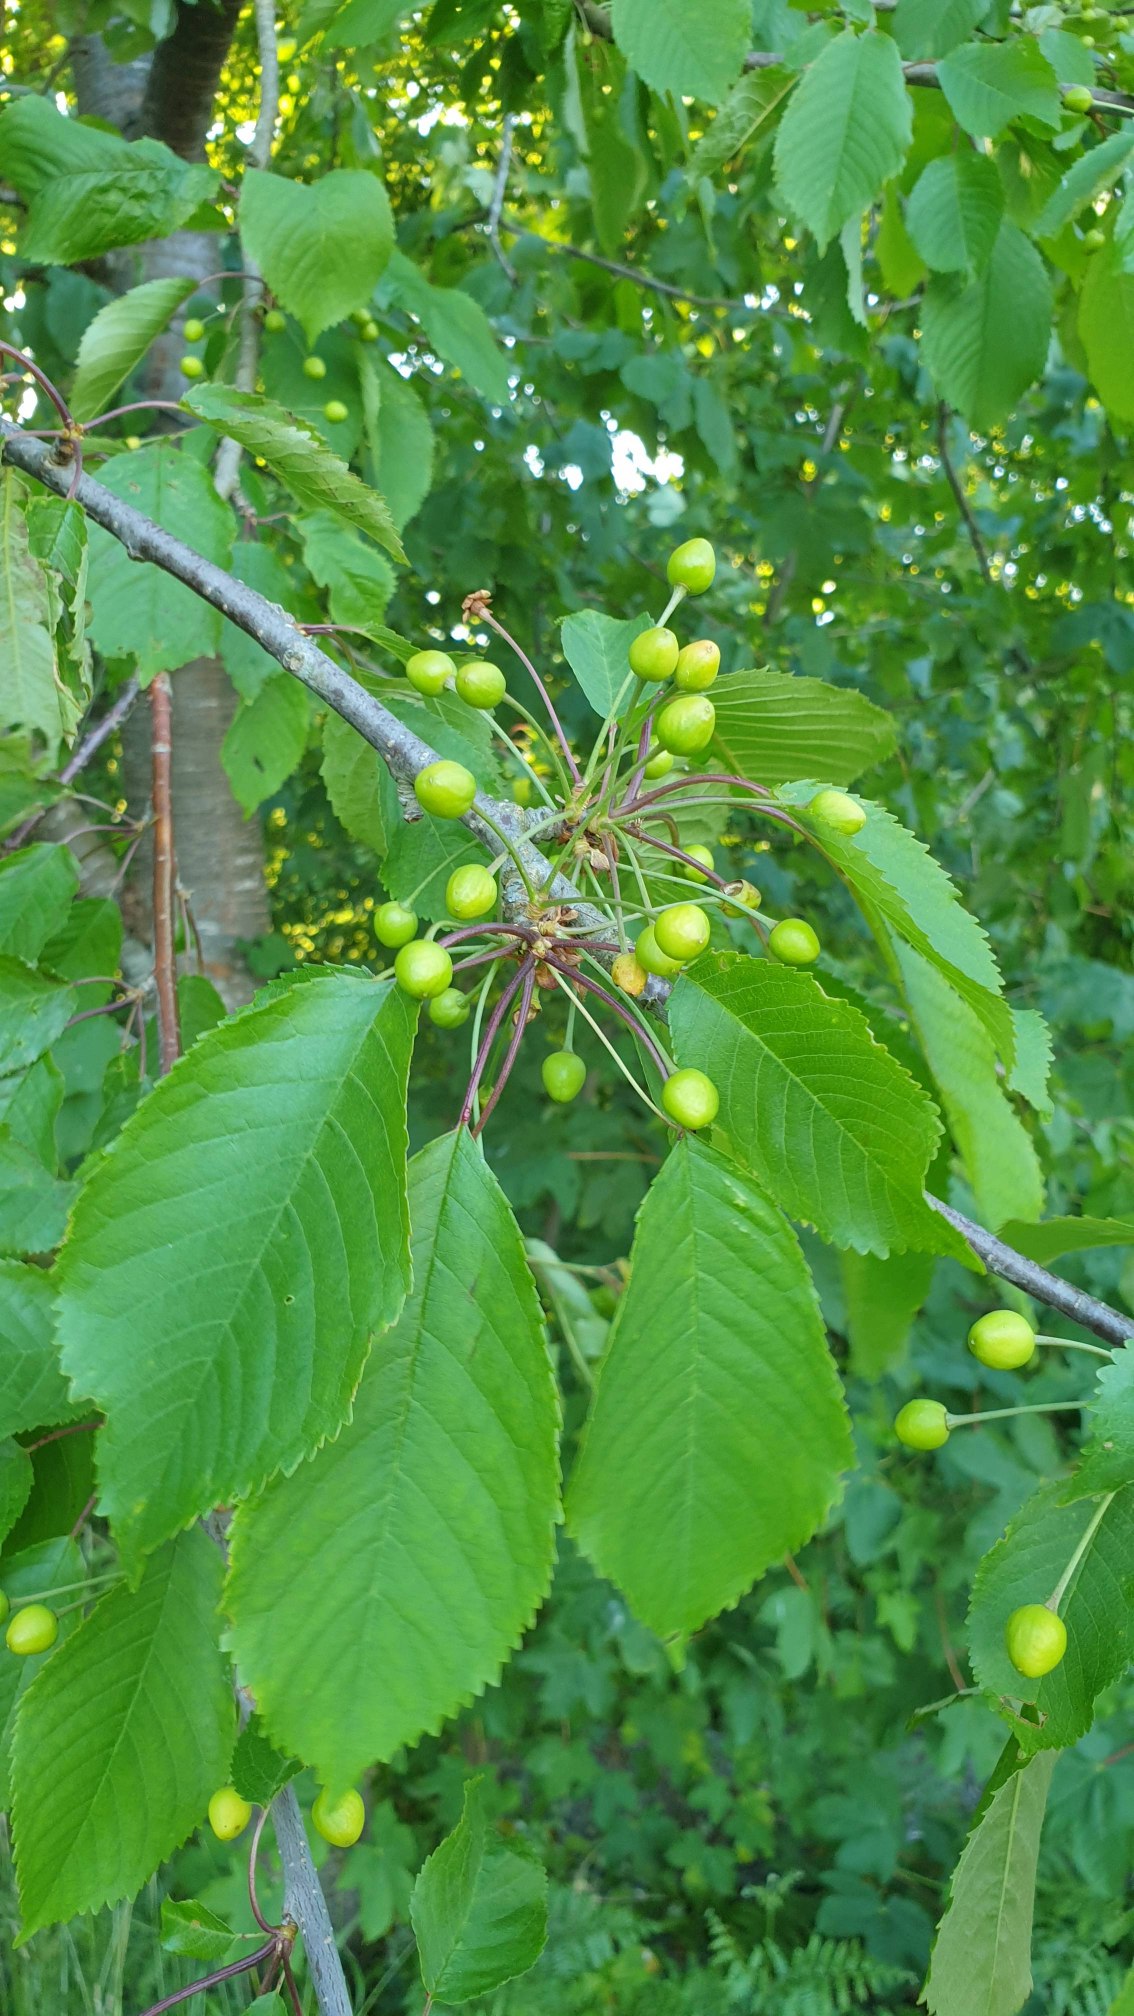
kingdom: Plantae
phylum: Tracheophyta
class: Magnoliopsida
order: Rosales
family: Rosaceae
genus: Prunus
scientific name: Prunus avium
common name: Fugle-kirsebær
